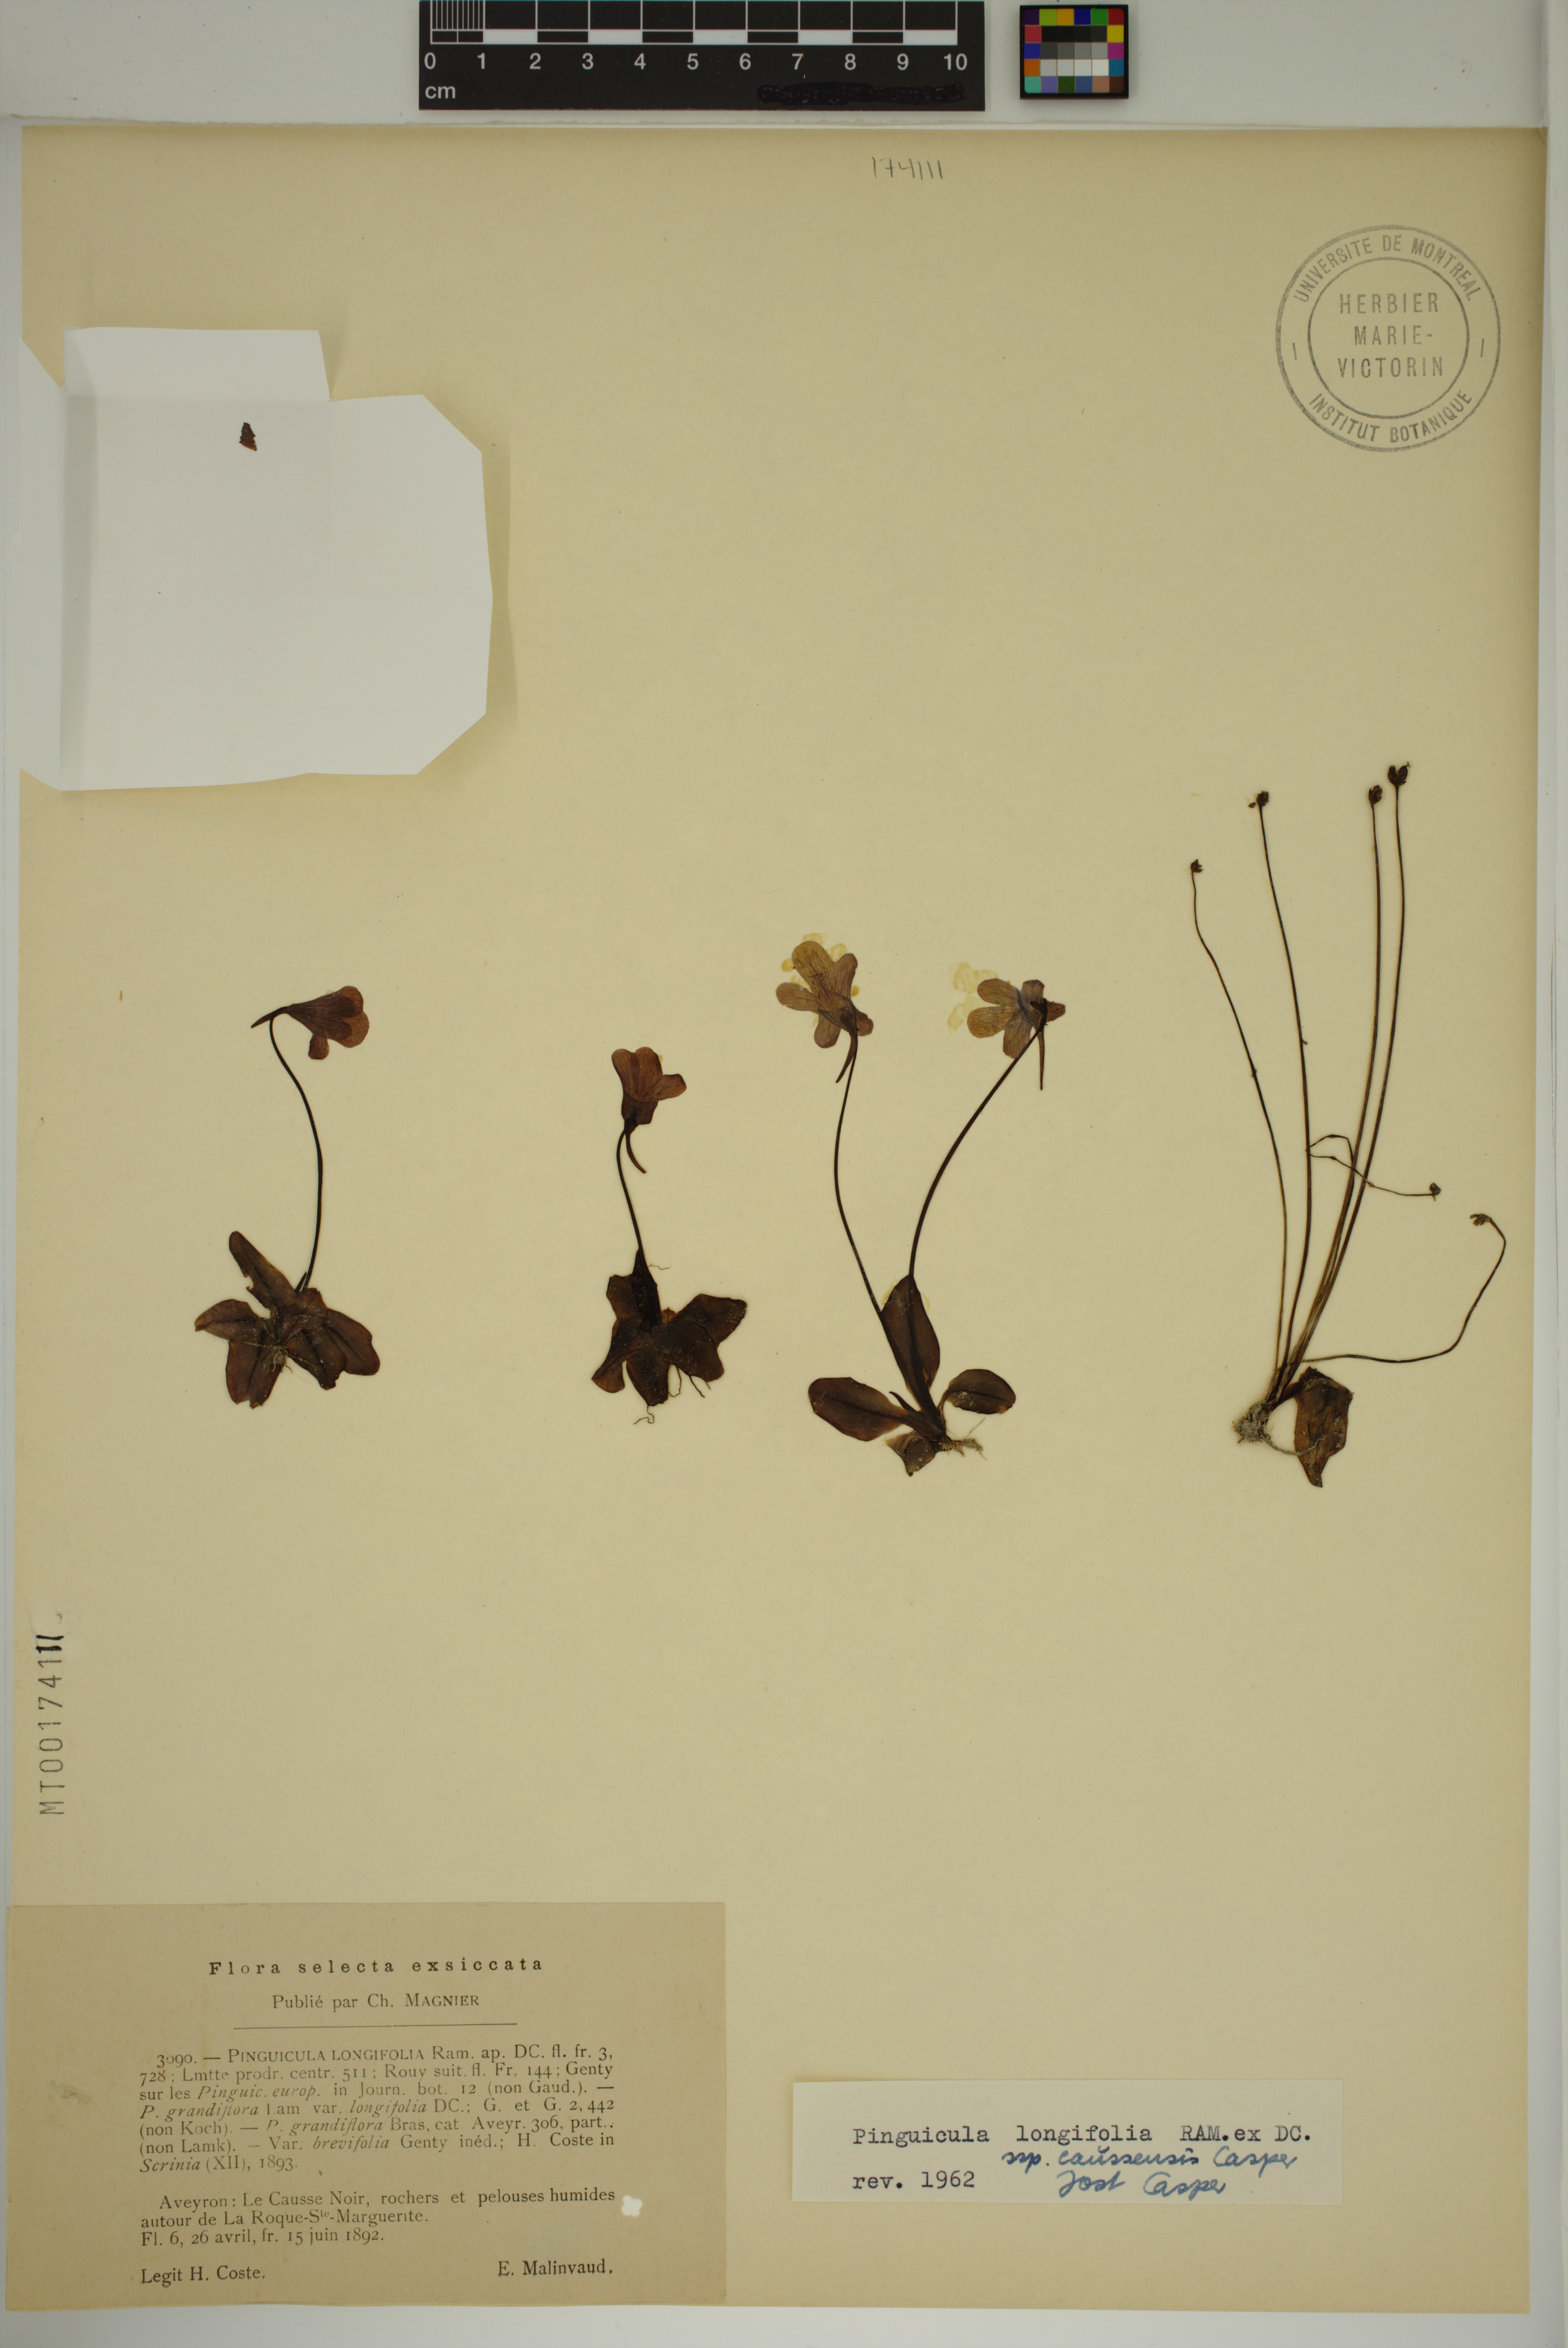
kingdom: Plantae
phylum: Tracheophyta
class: Magnoliopsida
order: Lamiales
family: Lentibulariaceae
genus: Pinguicula
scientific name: Pinguicula caussensis
